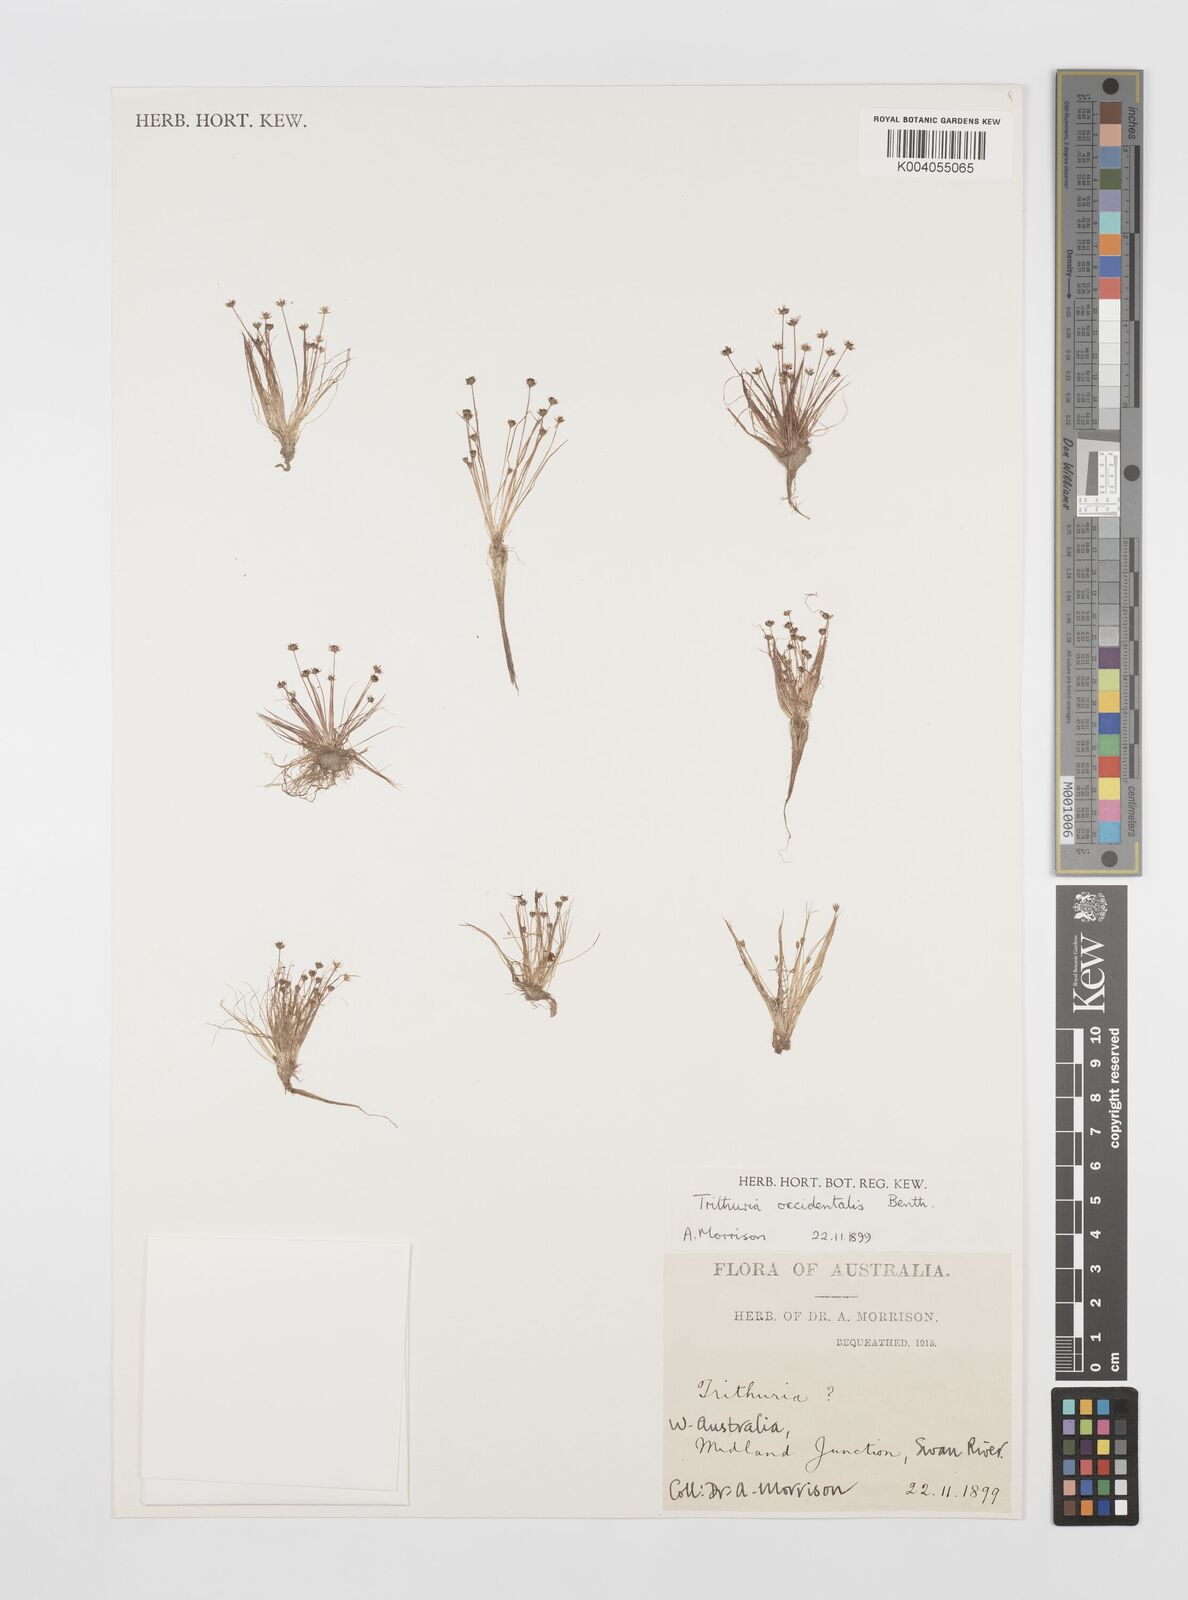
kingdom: Plantae
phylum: Tracheophyta
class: Magnoliopsida
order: Nymphaeales
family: Hydatellaceae
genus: Trithuria
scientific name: Trithuria occidentalis
